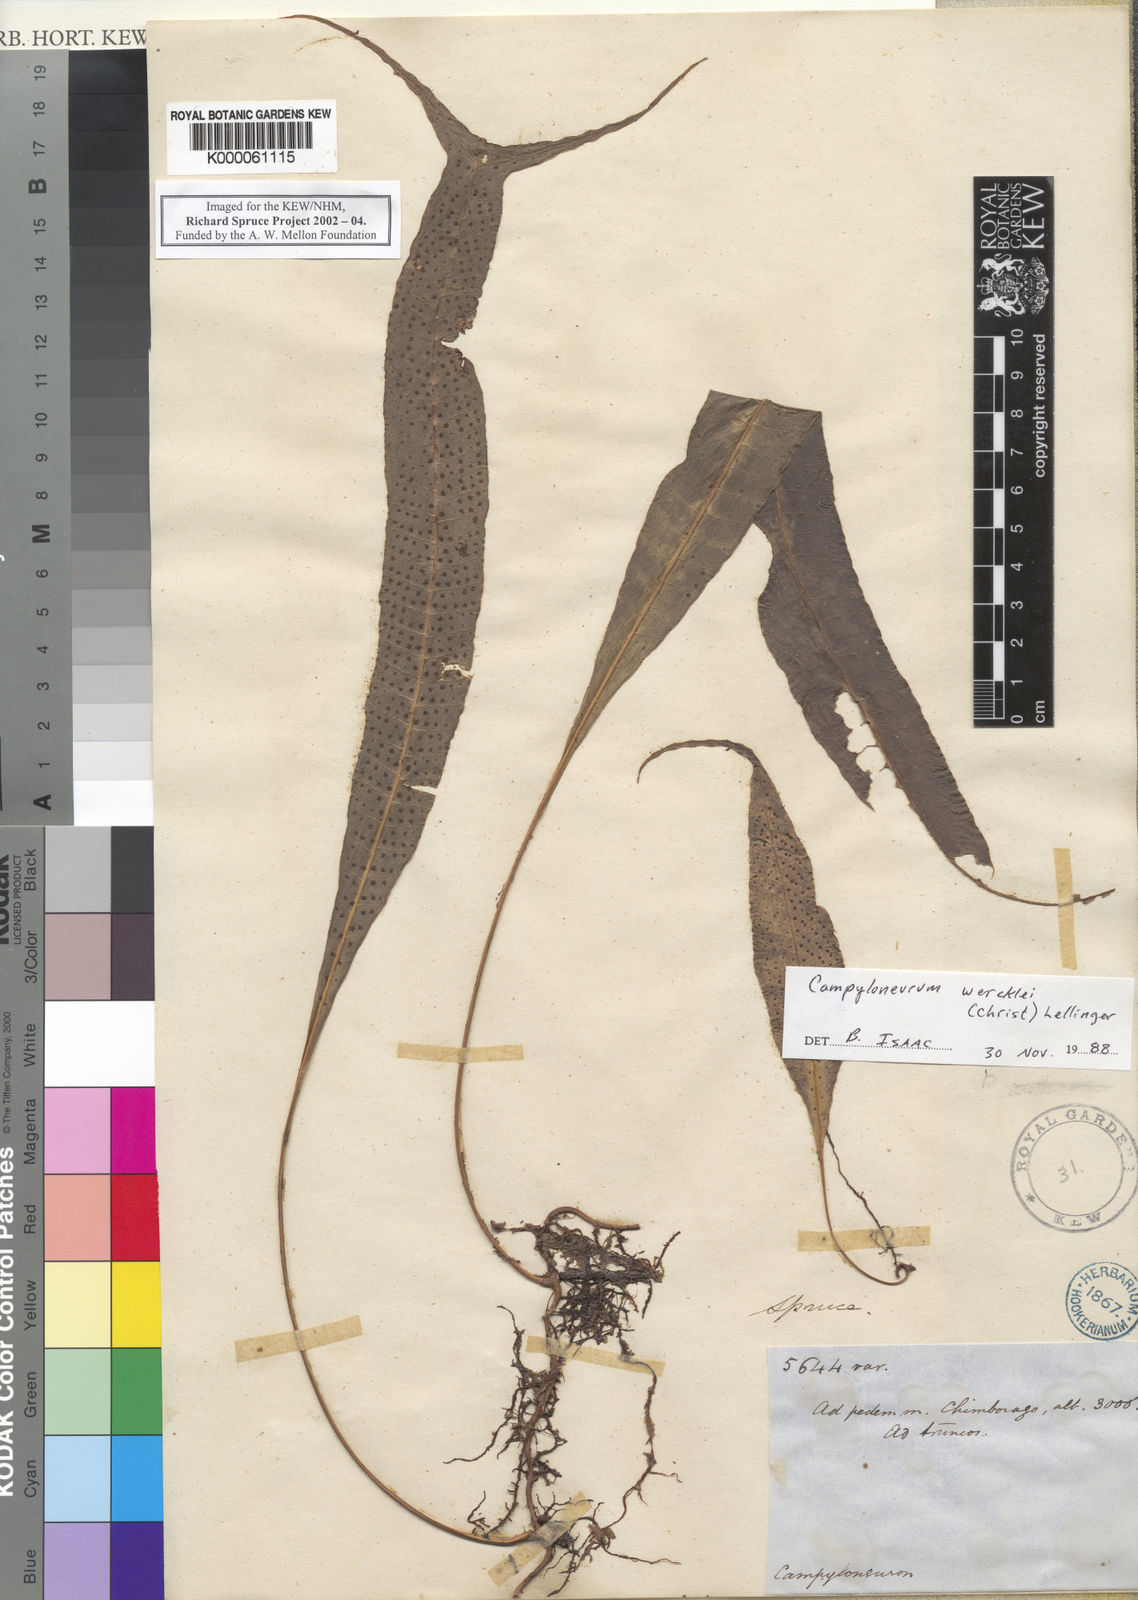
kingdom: Plantae
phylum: Tracheophyta
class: Polypodiopsida
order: Polypodiales
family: Polypodiaceae
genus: Campyloneurum
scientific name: Campyloneurum sphenodes
